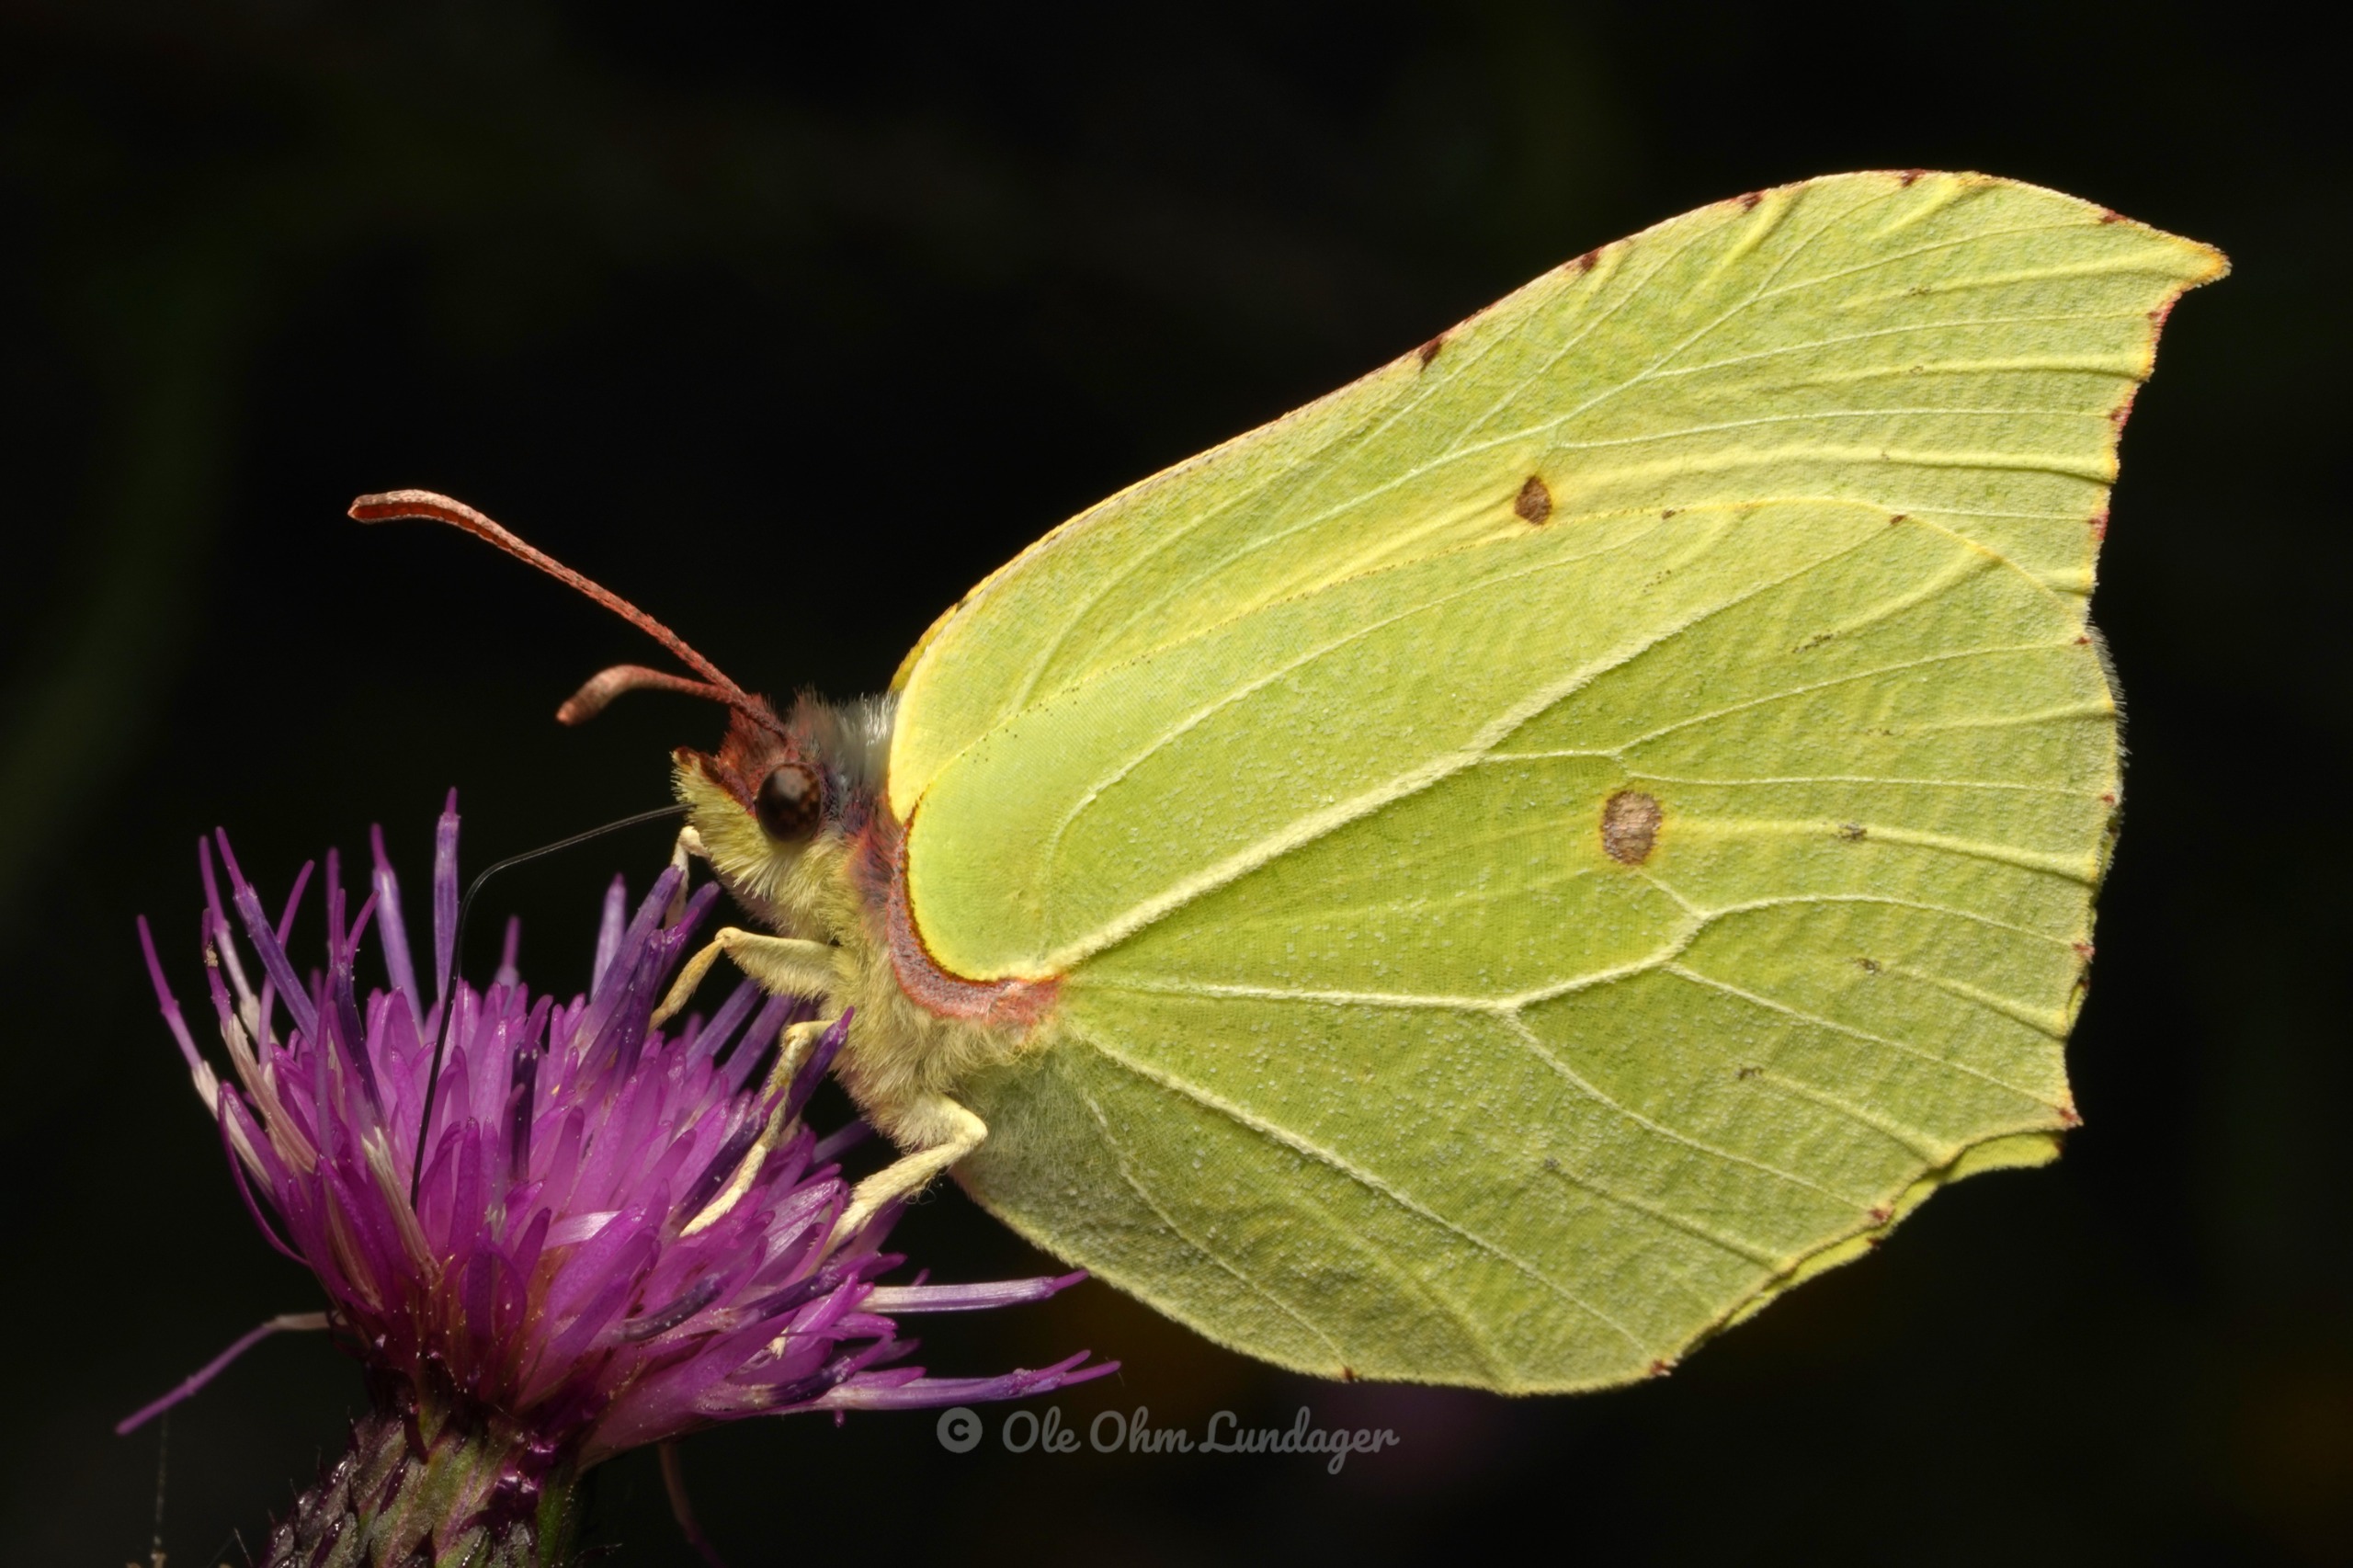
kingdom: Animalia
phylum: Arthropoda
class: Insecta
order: Lepidoptera
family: Pieridae
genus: Gonepteryx
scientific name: Gonepteryx rhamni
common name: Citronsommerfugl
